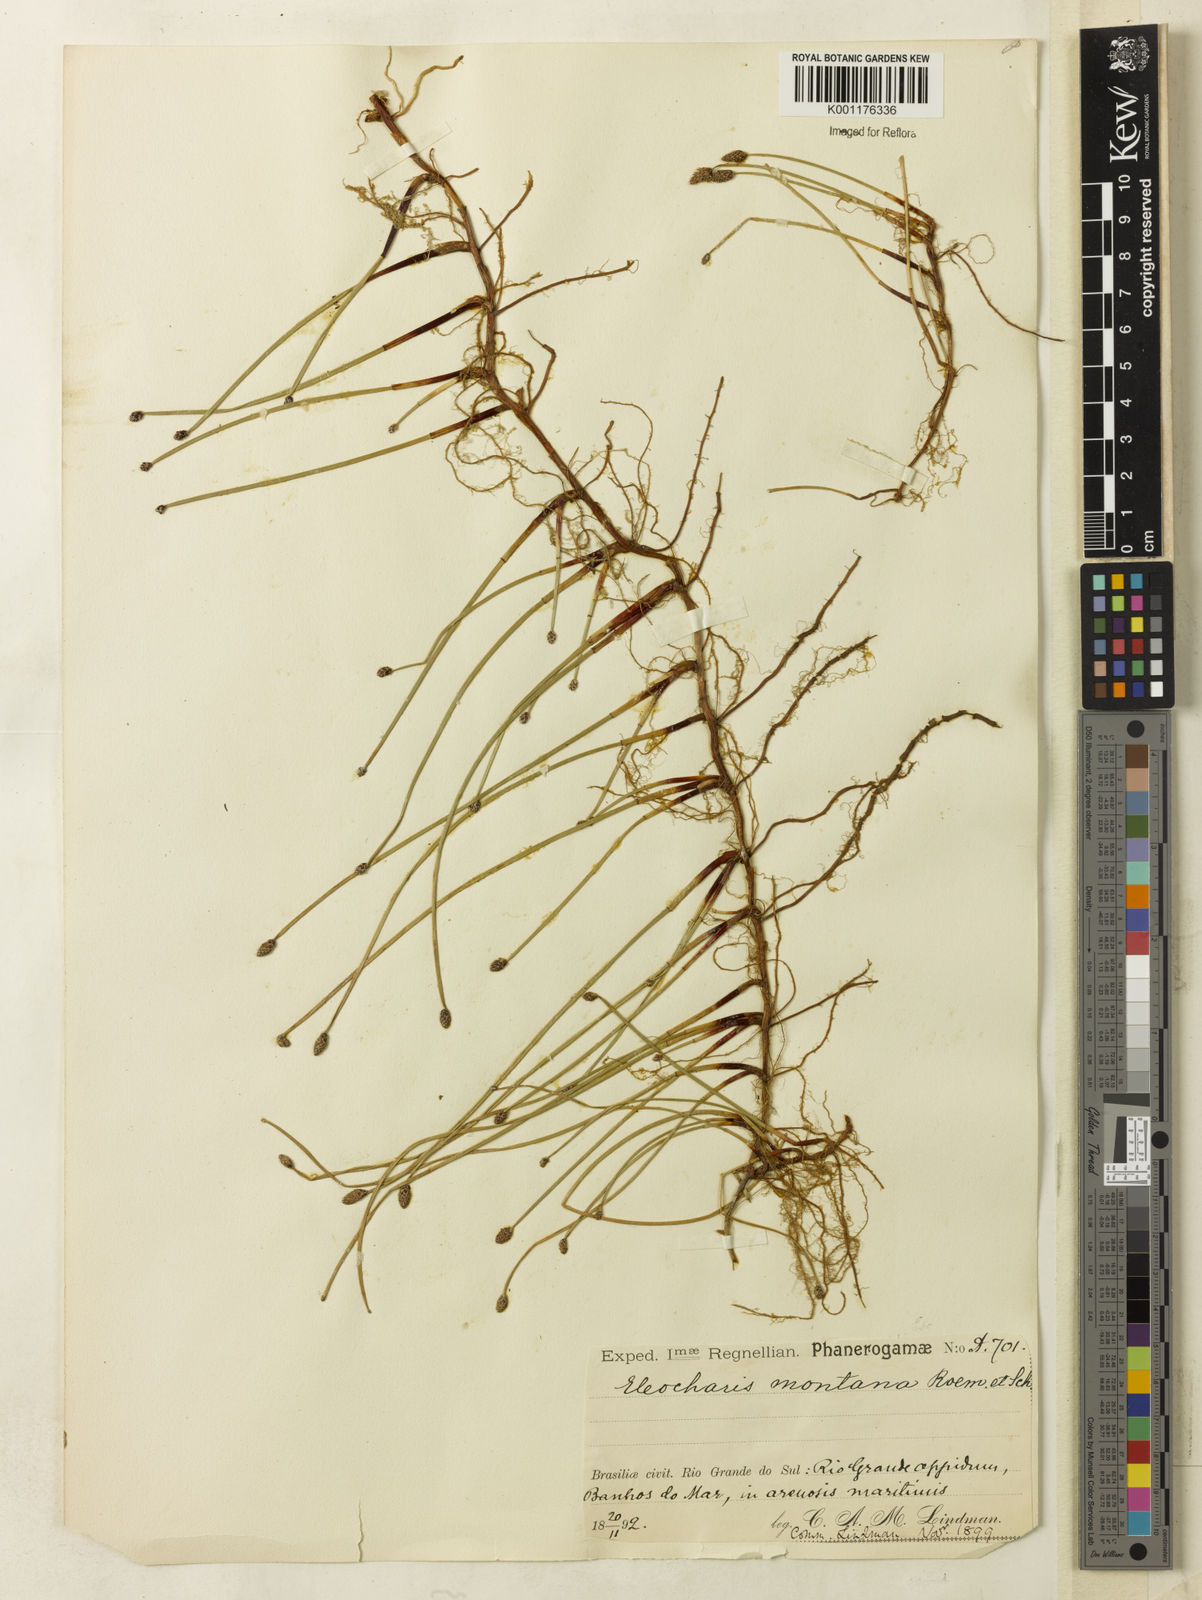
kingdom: Plantae
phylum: Tracheophyta
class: Liliopsida
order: Poales
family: Cyperaceae
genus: Eleocharis
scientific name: Eleocharis
